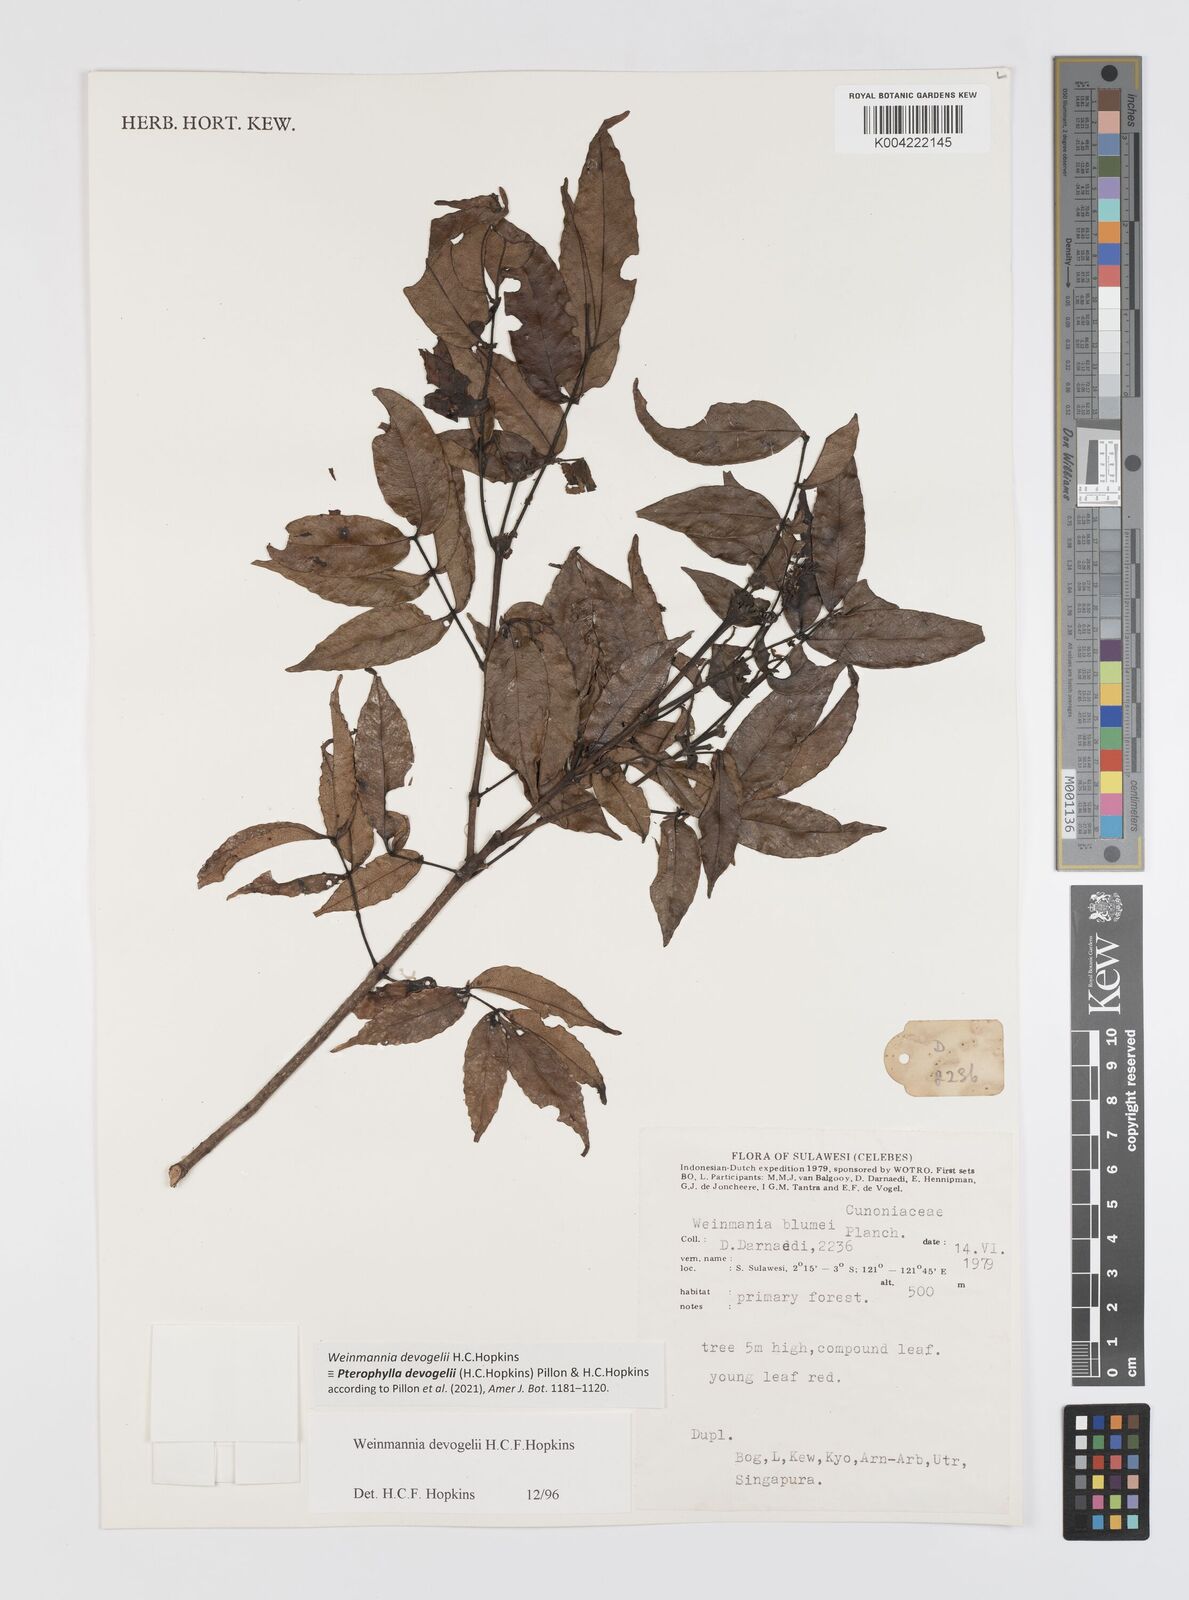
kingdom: Plantae
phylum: Tracheophyta
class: Magnoliopsida
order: Oxalidales
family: Cunoniaceae
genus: Pterophylla
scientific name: Pterophylla devogelii
